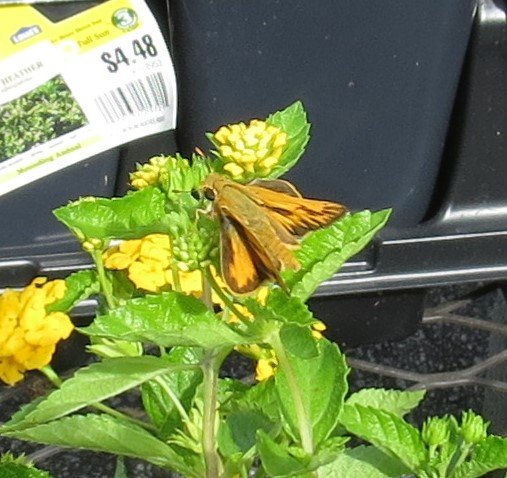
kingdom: Animalia
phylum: Arthropoda
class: Insecta
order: Lepidoptera
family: Hesperiidae
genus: Hylephila
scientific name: Hylephila phyleus
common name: Fiery Skipper
